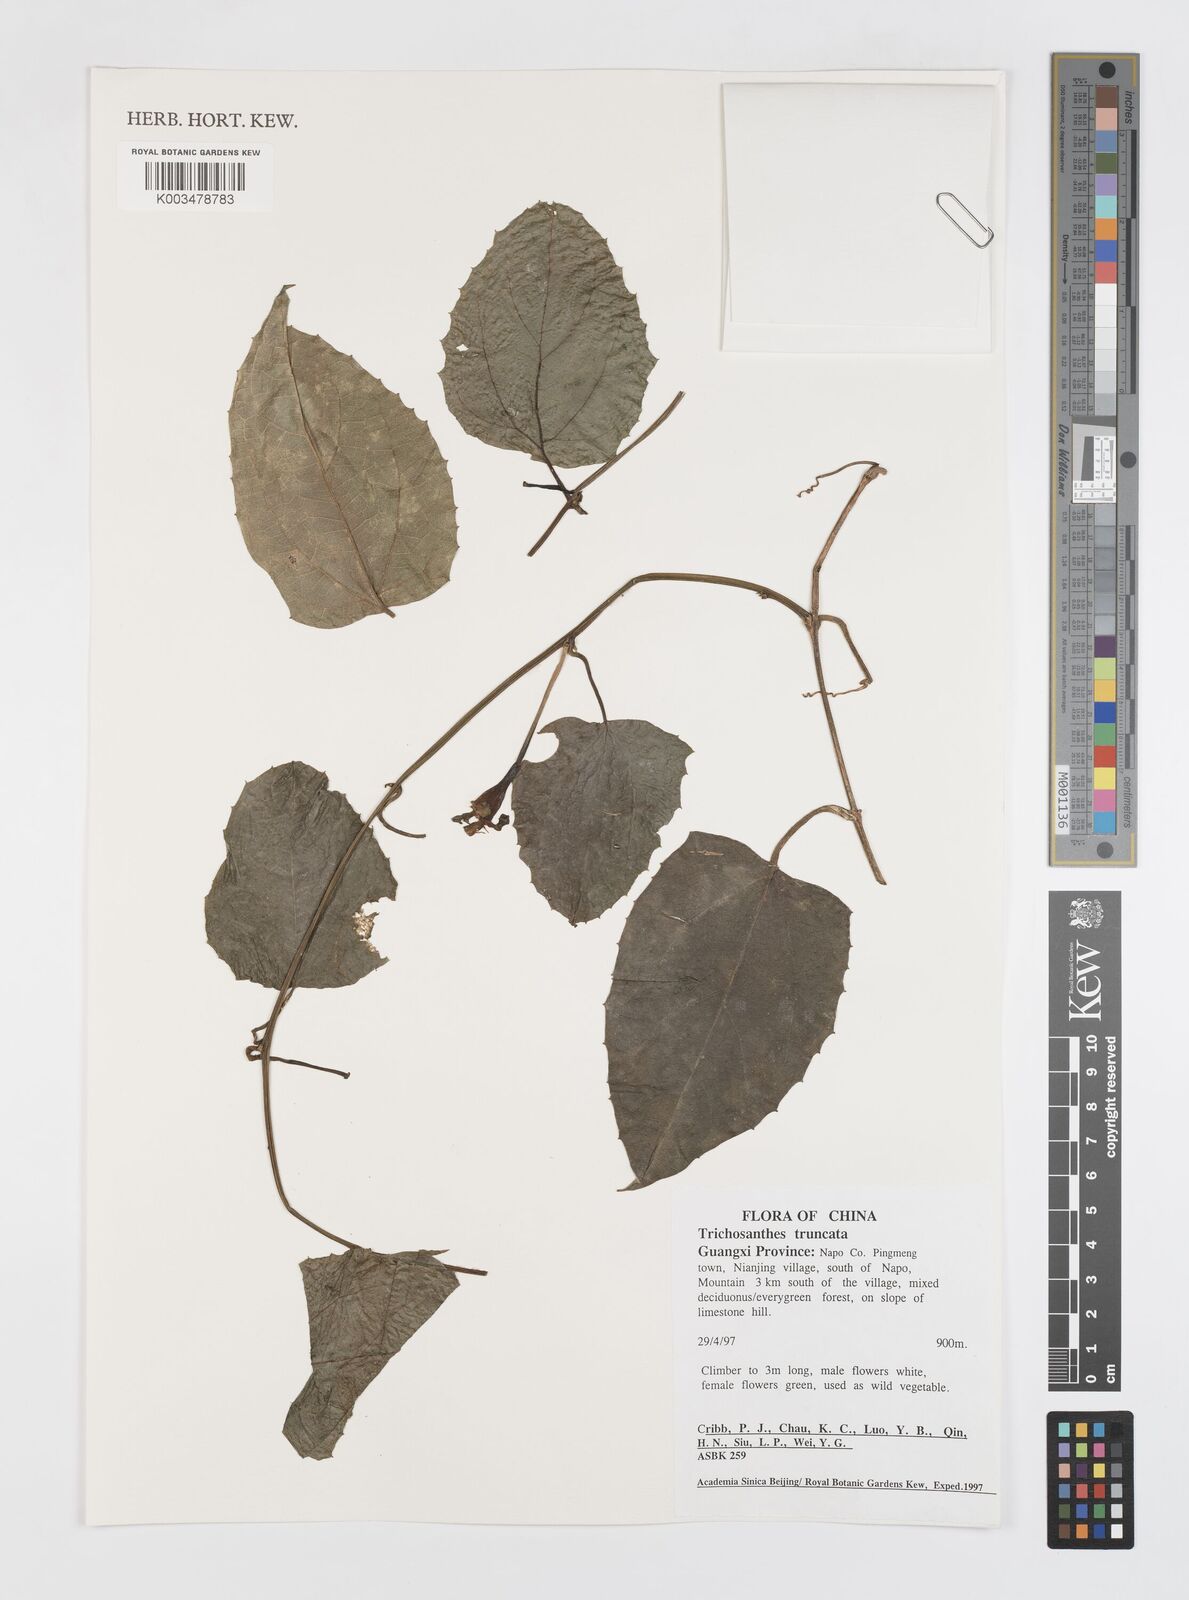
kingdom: Plantae
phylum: Tracheophyta
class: Magnoliopsida
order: Cucurbitales
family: Cucurbitaceae
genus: Trichosanthes
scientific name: Trichosanthes truncata
